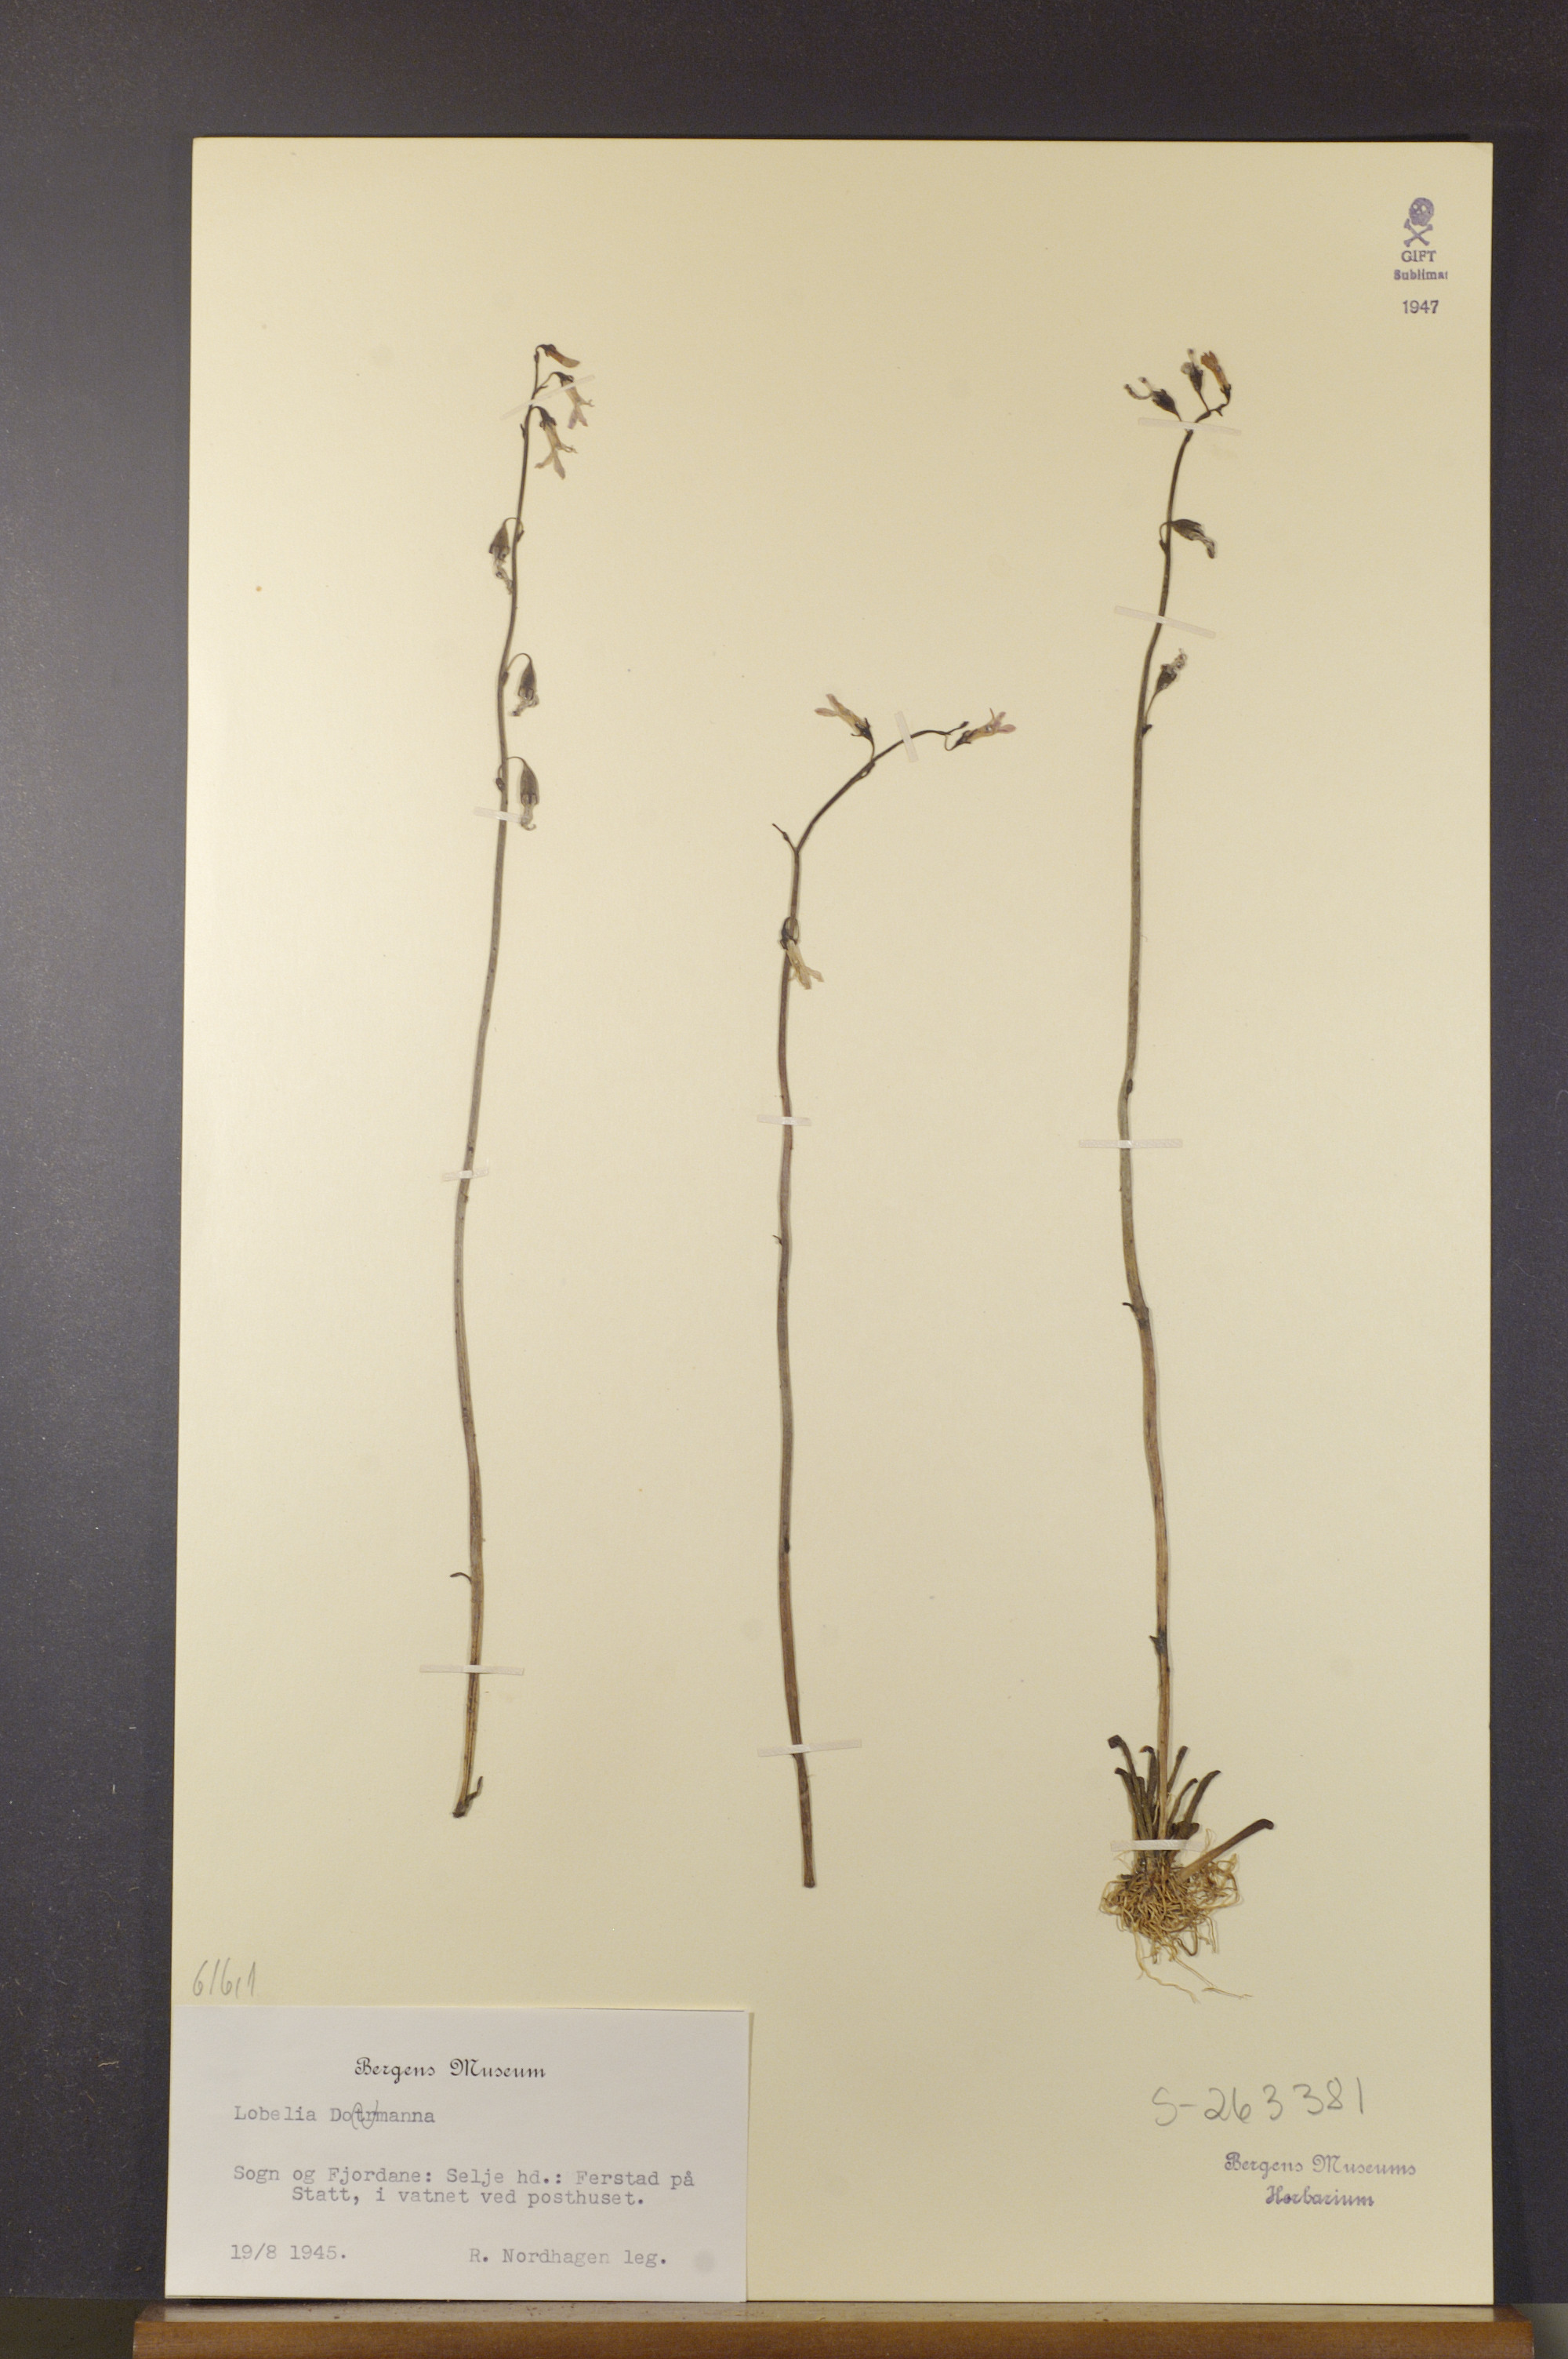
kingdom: Plantae
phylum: Tracheophyta
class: Magnoliopsida
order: Asterales
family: Campanulaceae
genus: Lobelia
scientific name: Lobelia dortmanna
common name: Water lobelia
